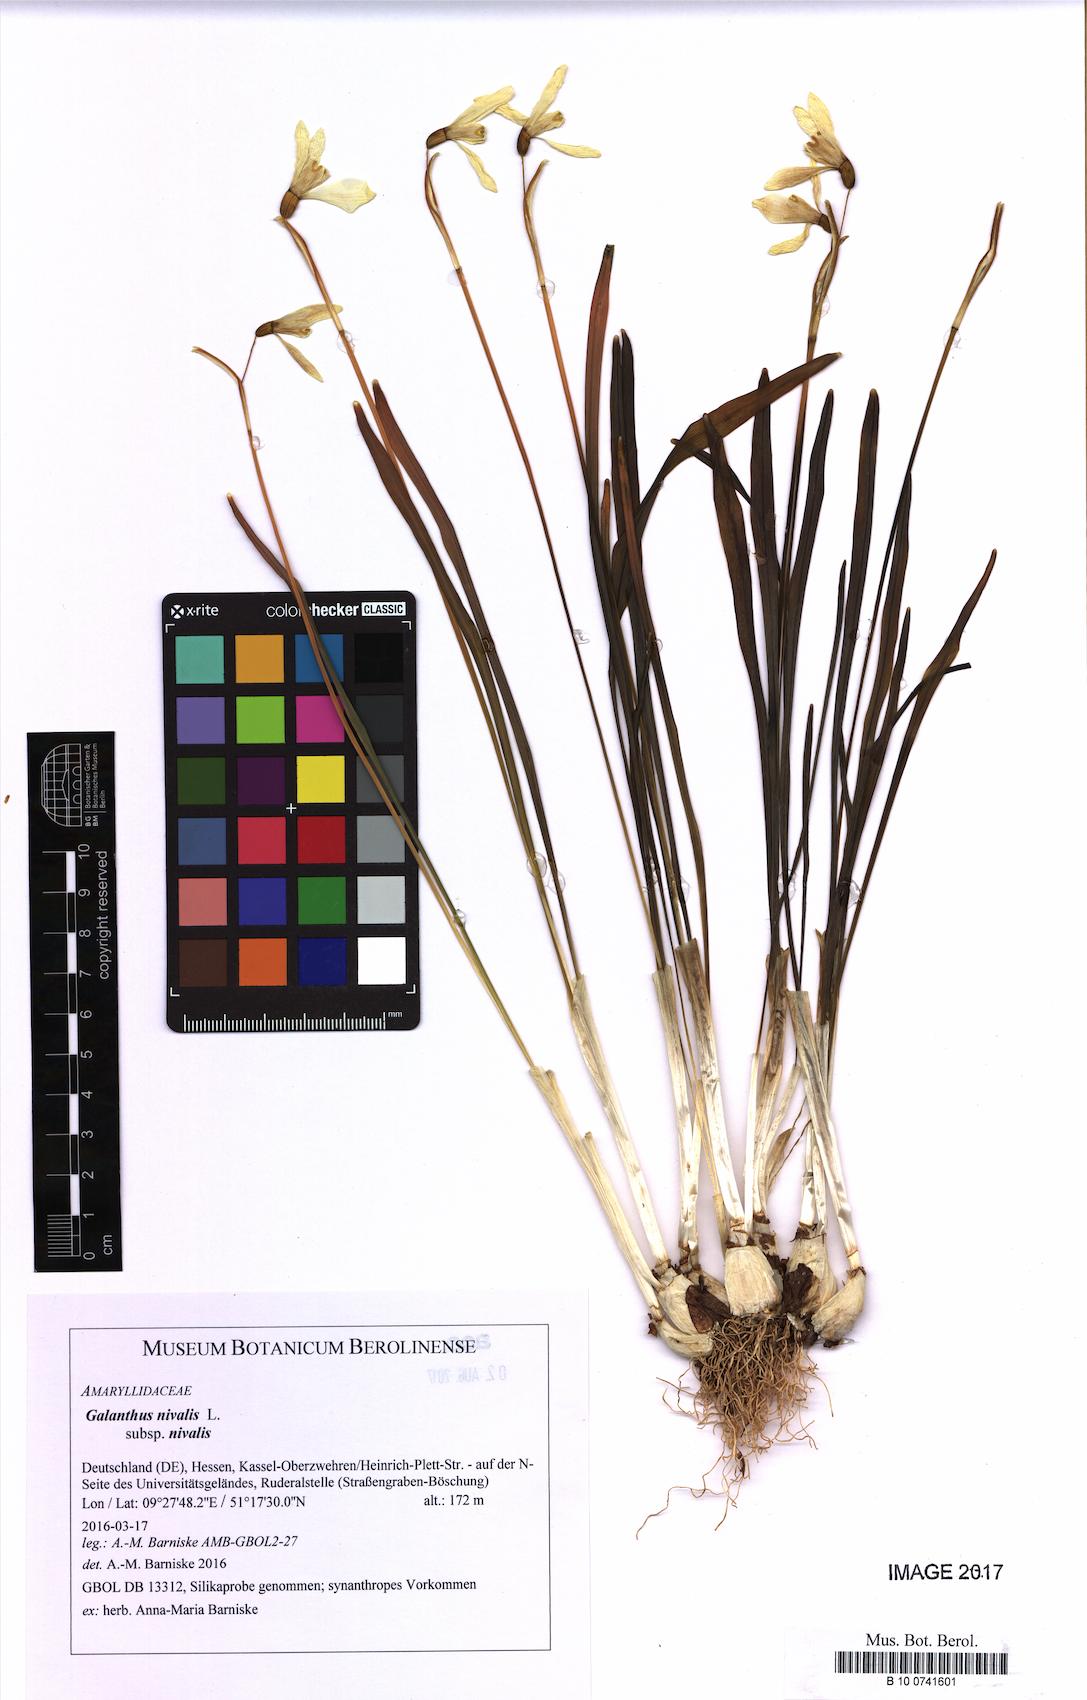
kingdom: Plantae
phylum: Tracheophyta
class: Liliopsida
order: Asparagales
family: Amaryllidaceae
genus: Galanthus
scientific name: Galanthus nivalis
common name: Snowdrop
